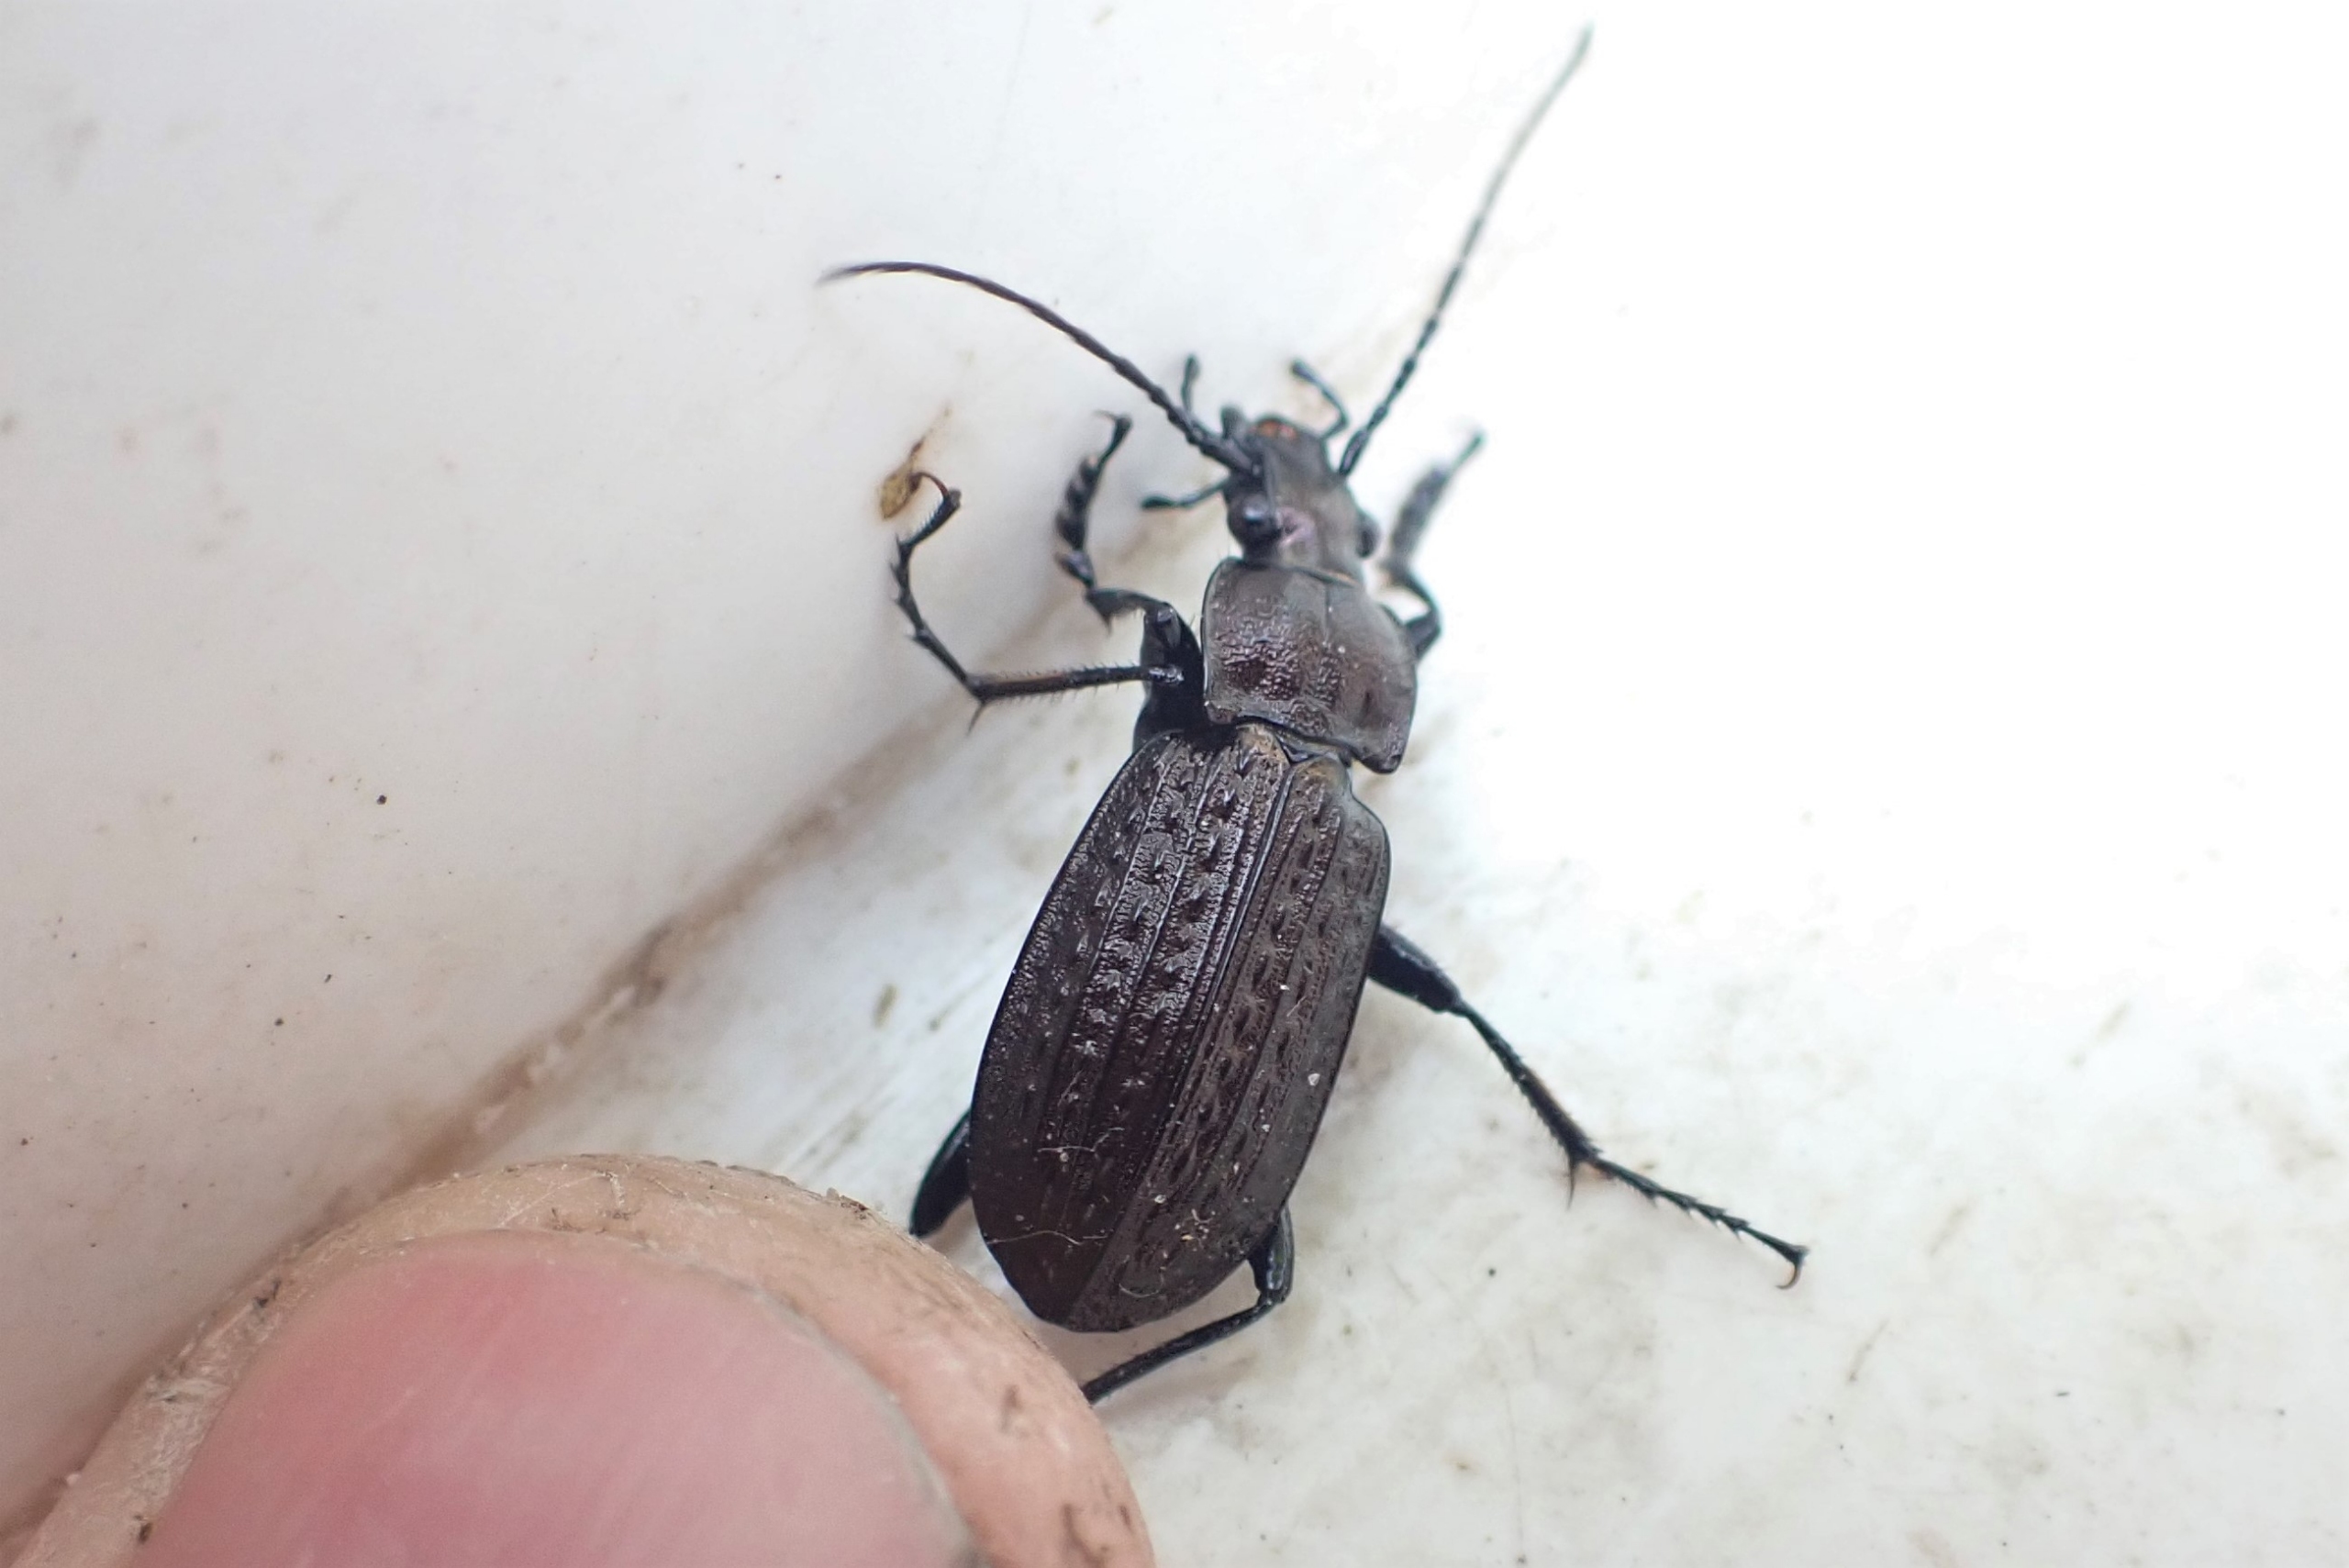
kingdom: Animalia
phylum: Arthropoda
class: Insecta
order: Coleoptera
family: Carabidae
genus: Carabus
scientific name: Carabus granulatus
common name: Kornet løber
